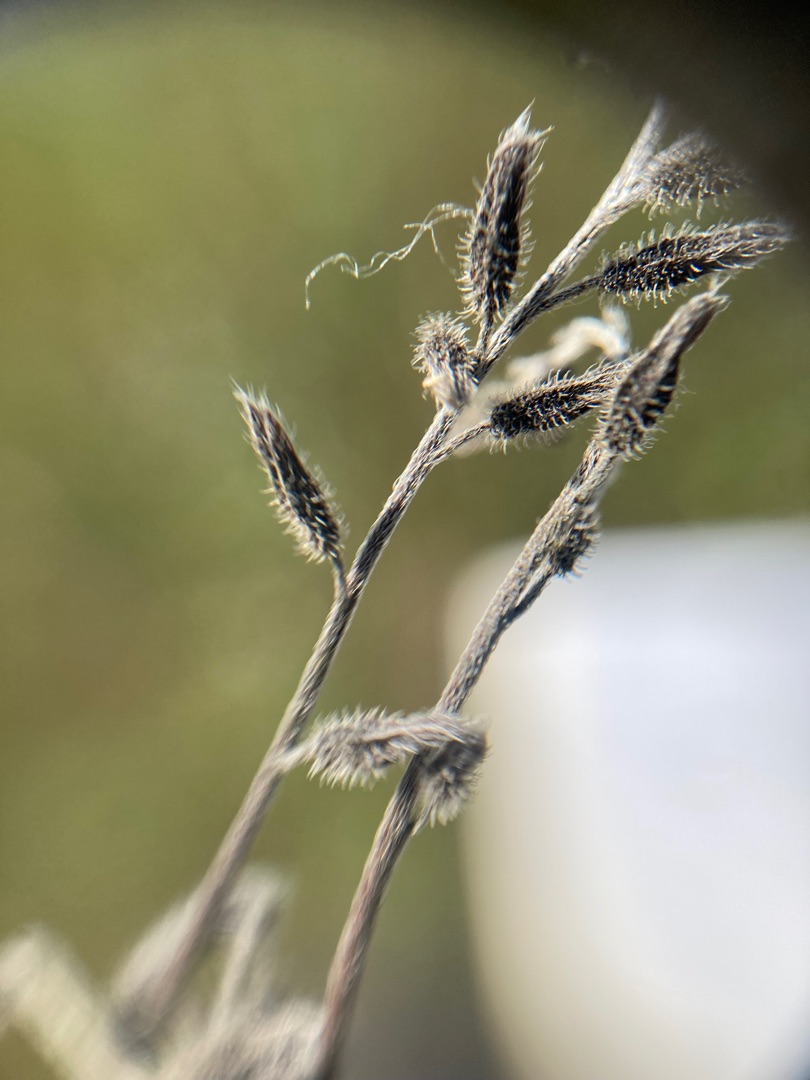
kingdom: Plantae
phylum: Tracheophyta
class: Magnoliopsida
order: Boraginales
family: Boraginaceae
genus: Myosotis
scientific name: Myosotis discolor
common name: Forskelligfarvet forglemmigej
